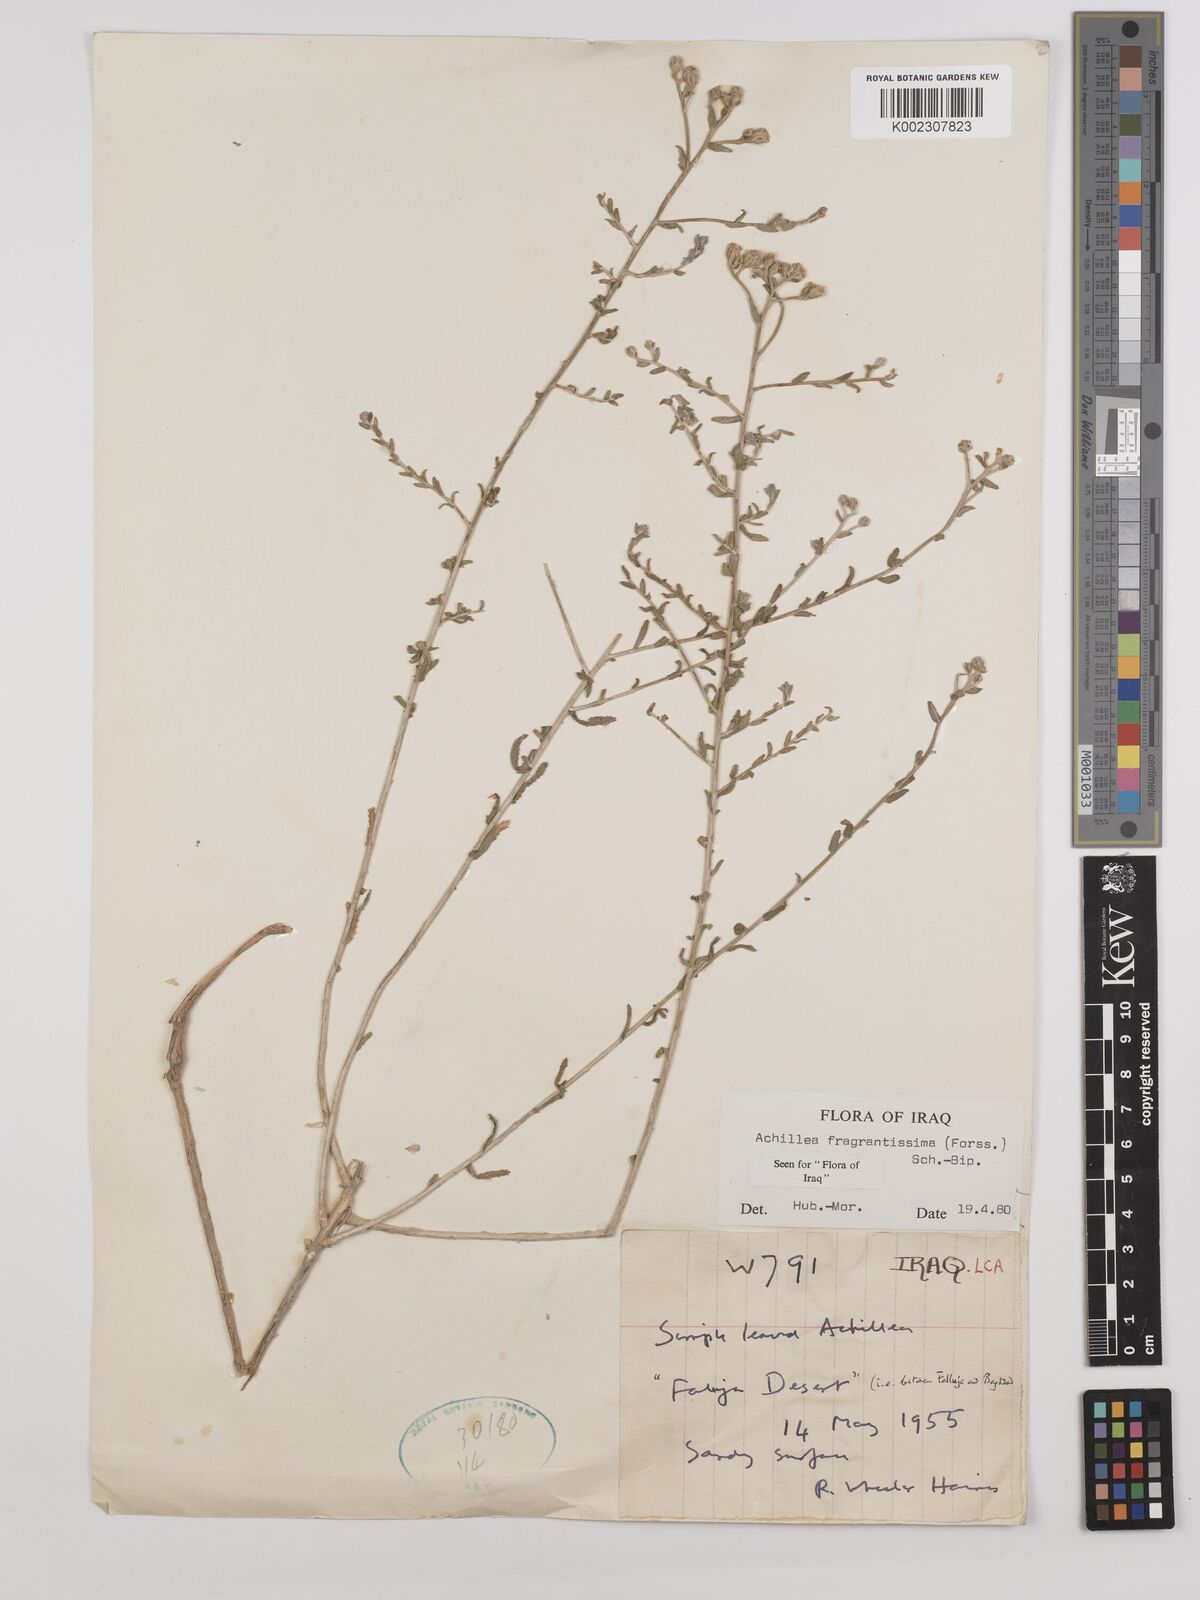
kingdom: Plantae
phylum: Tracheophyta
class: Magnoliopsida
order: Asterales
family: Asteraceae
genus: Achillea
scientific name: Achillea fragrantissima
